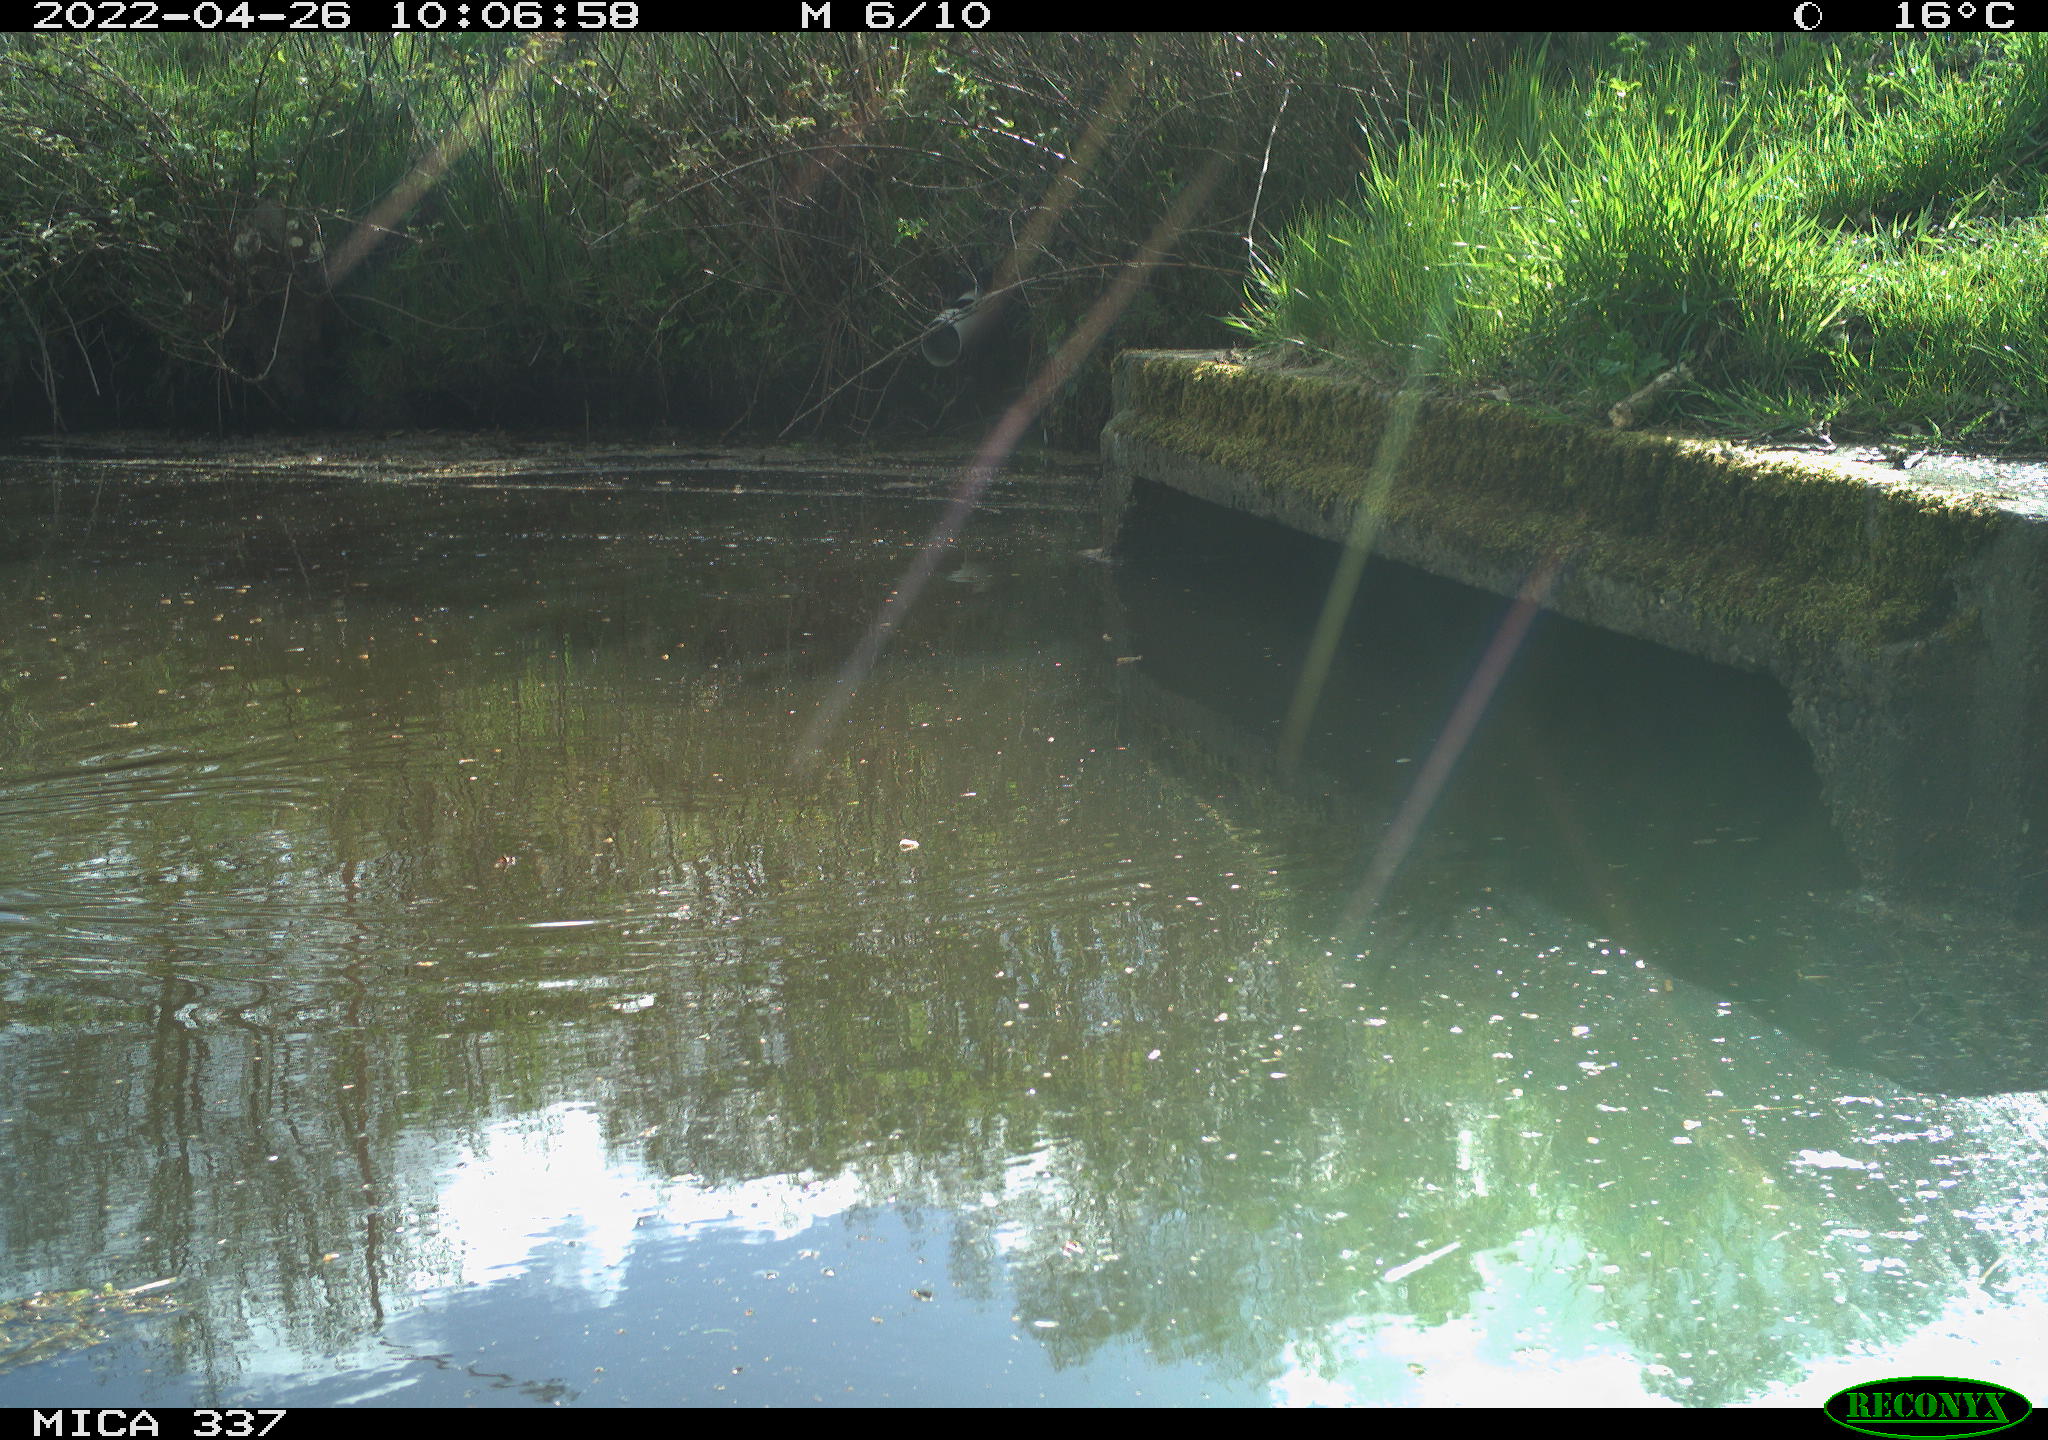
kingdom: Animalia
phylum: Chordata
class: Aves
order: Gruiformes
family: Rallidae
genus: Gallinula
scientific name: Gallinula chloropus
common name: Common moorhen
